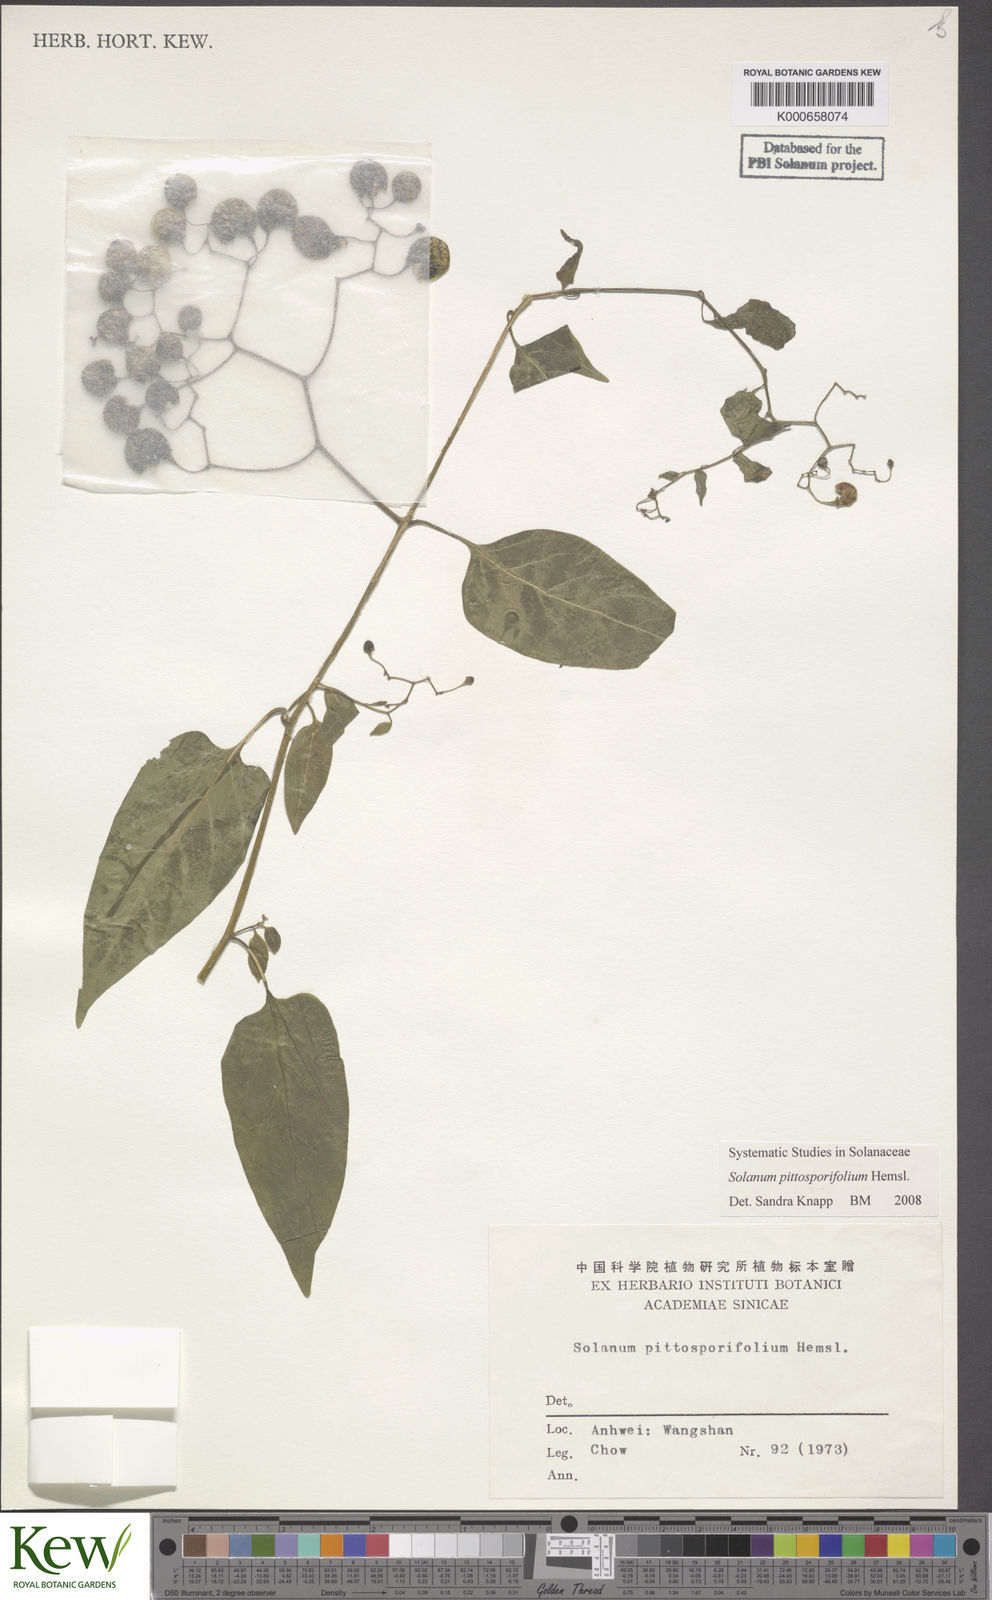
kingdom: Plantae
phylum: Tracheophyta
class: Magnoliopsida
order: Solanales
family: Solanaceae
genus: Solanum
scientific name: Solanum pittosporifolium
